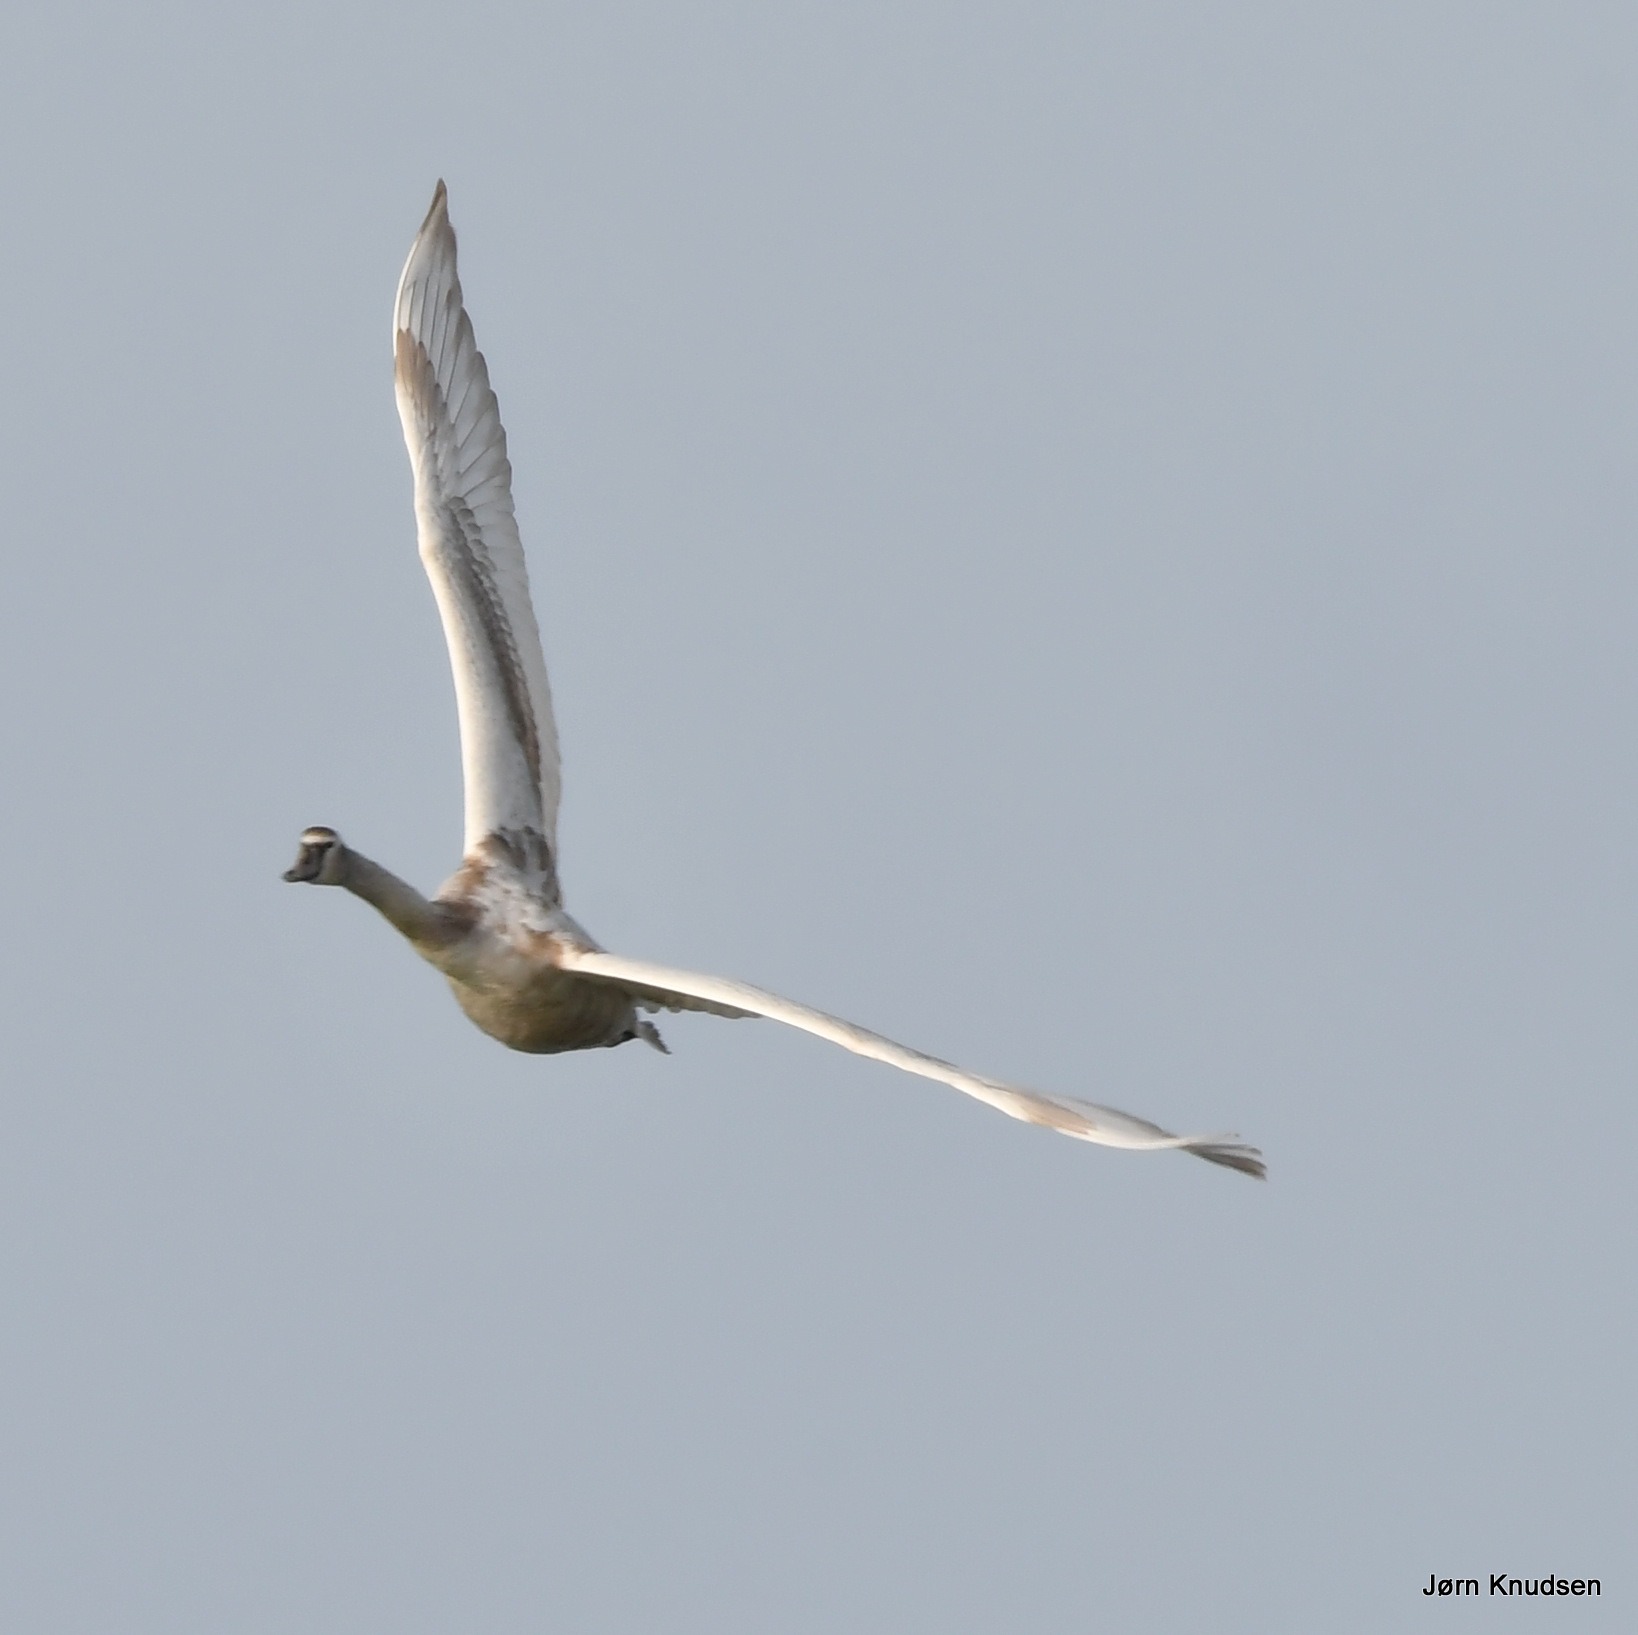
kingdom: Animalia
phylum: Chordata
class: Aves
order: Anseriformes
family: Anatidae
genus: Cygnus
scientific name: Cygnus olor
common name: Knopsvane
